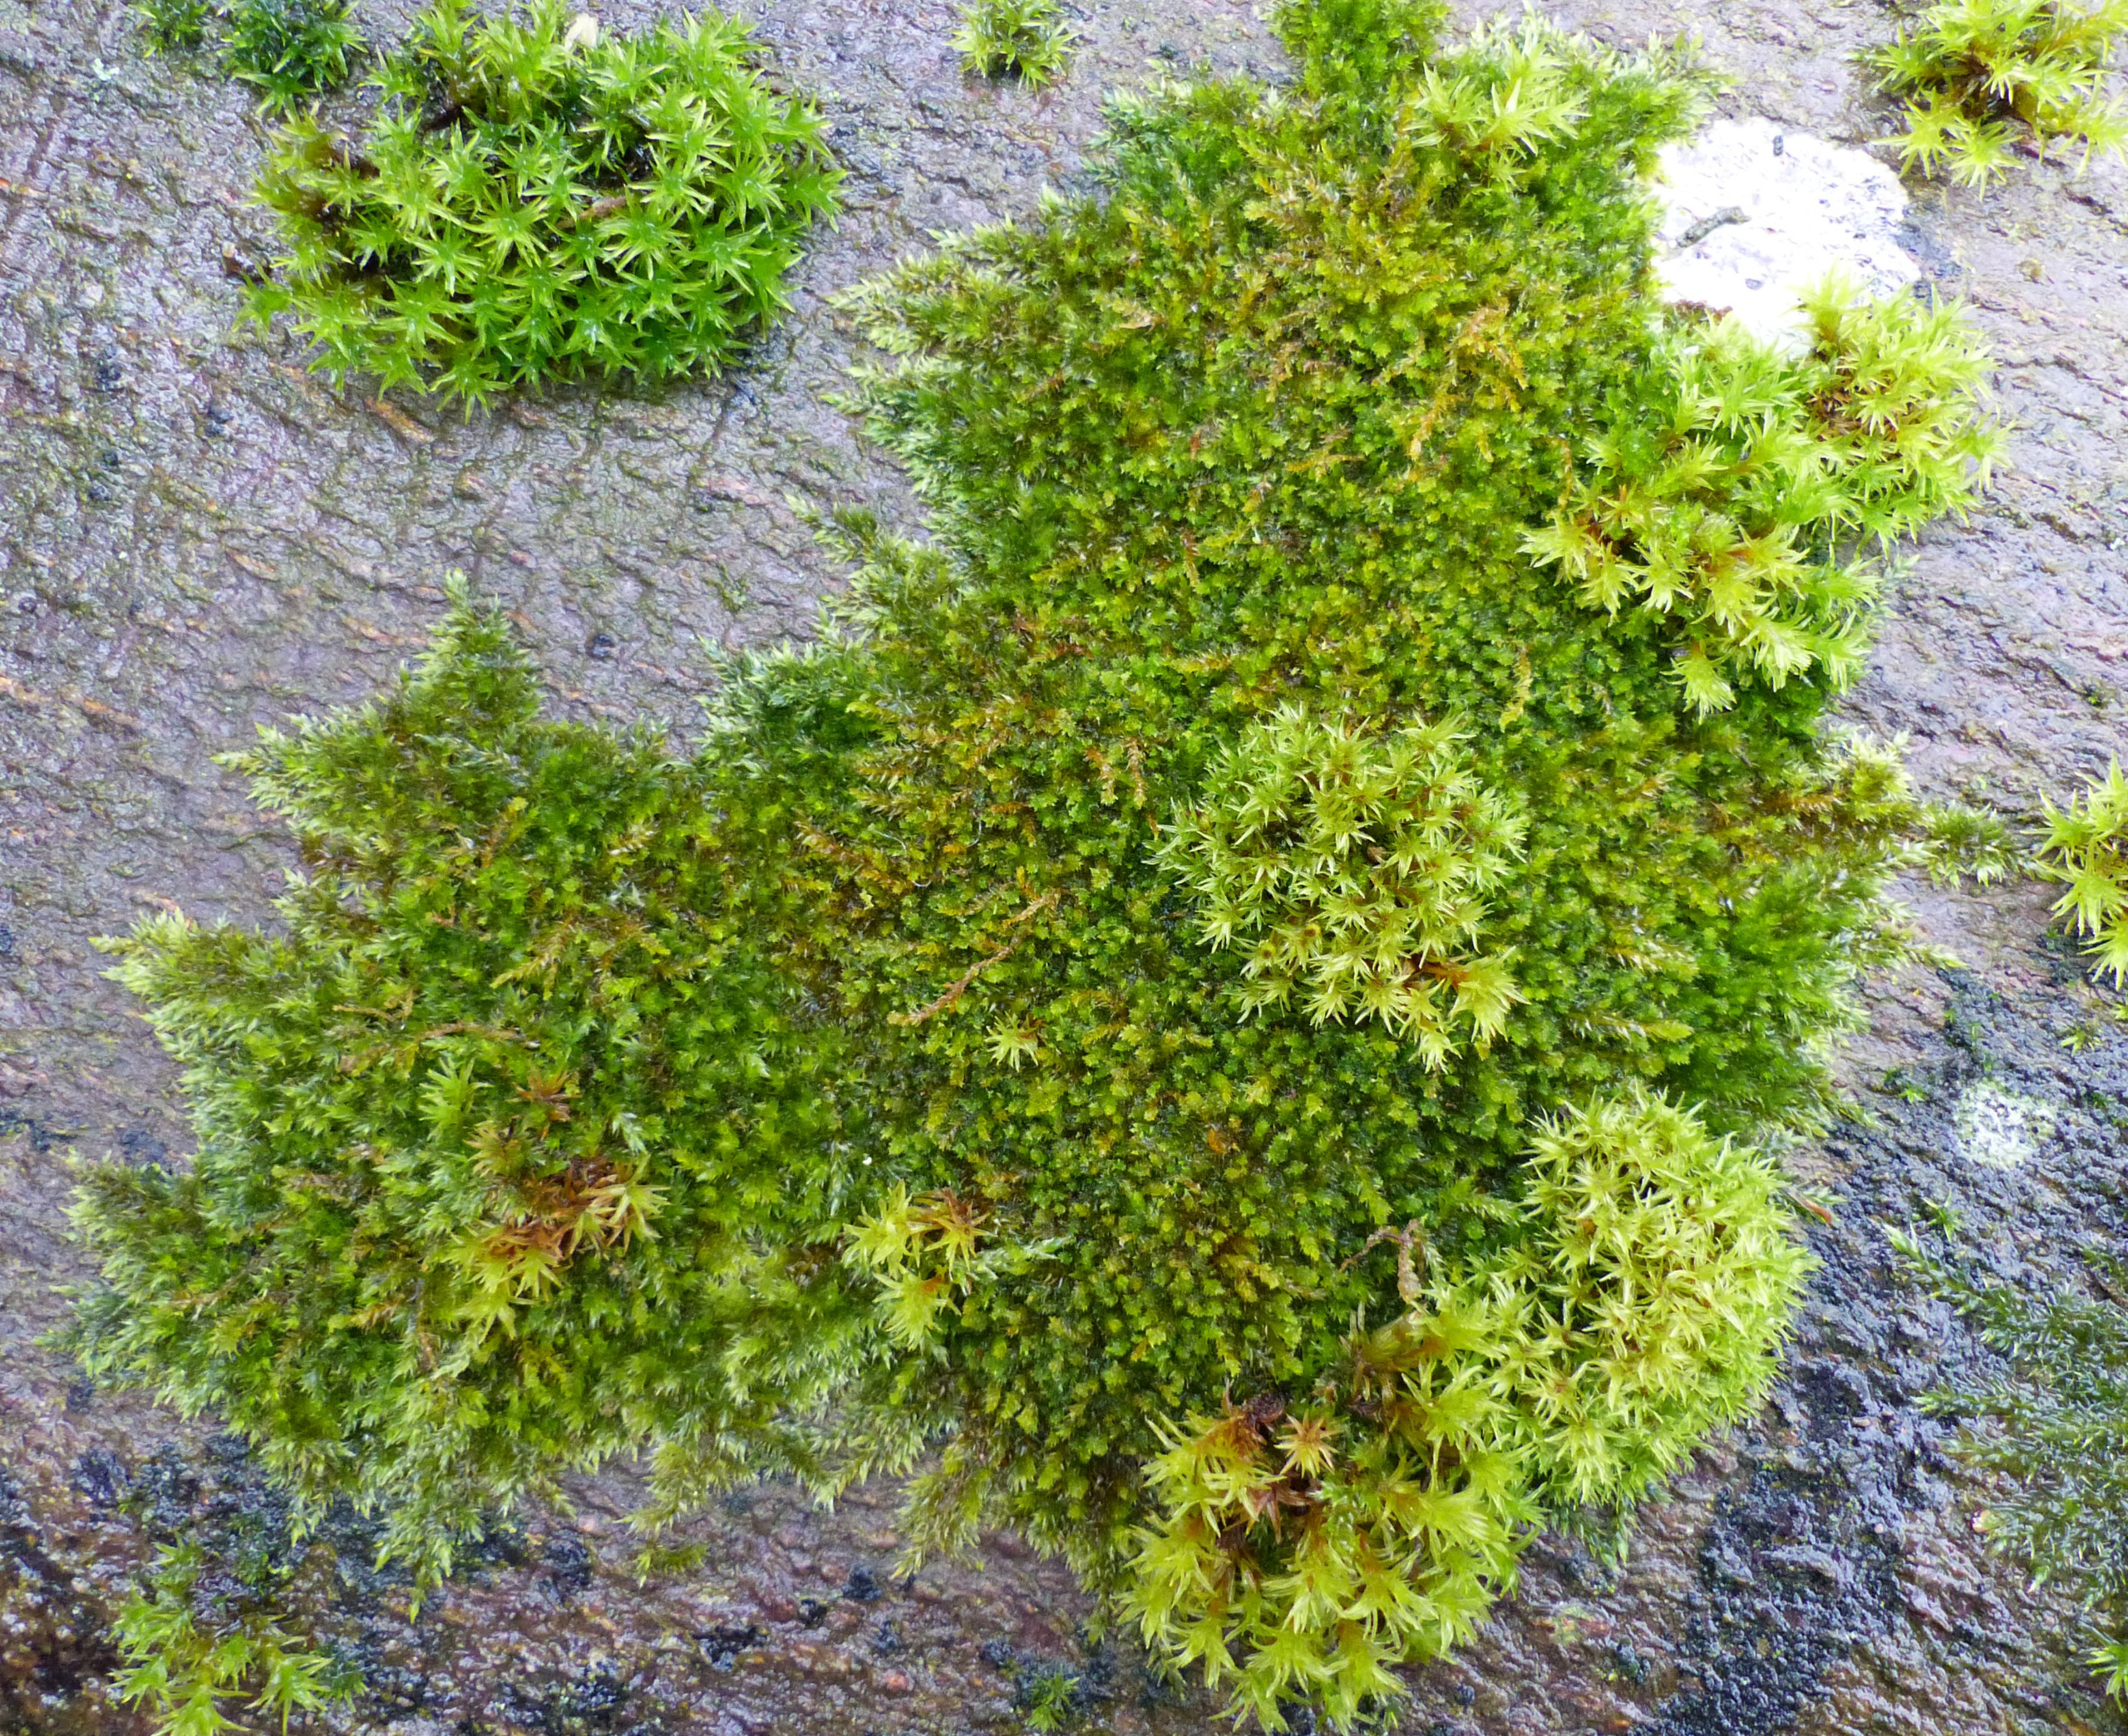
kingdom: Plantae
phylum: Bryophyta
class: Bryopsida
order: Hypnales
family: Pylaisiadelphaceae
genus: Platygyrium
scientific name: Platygyrium repens
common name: Mørk yngleknop
